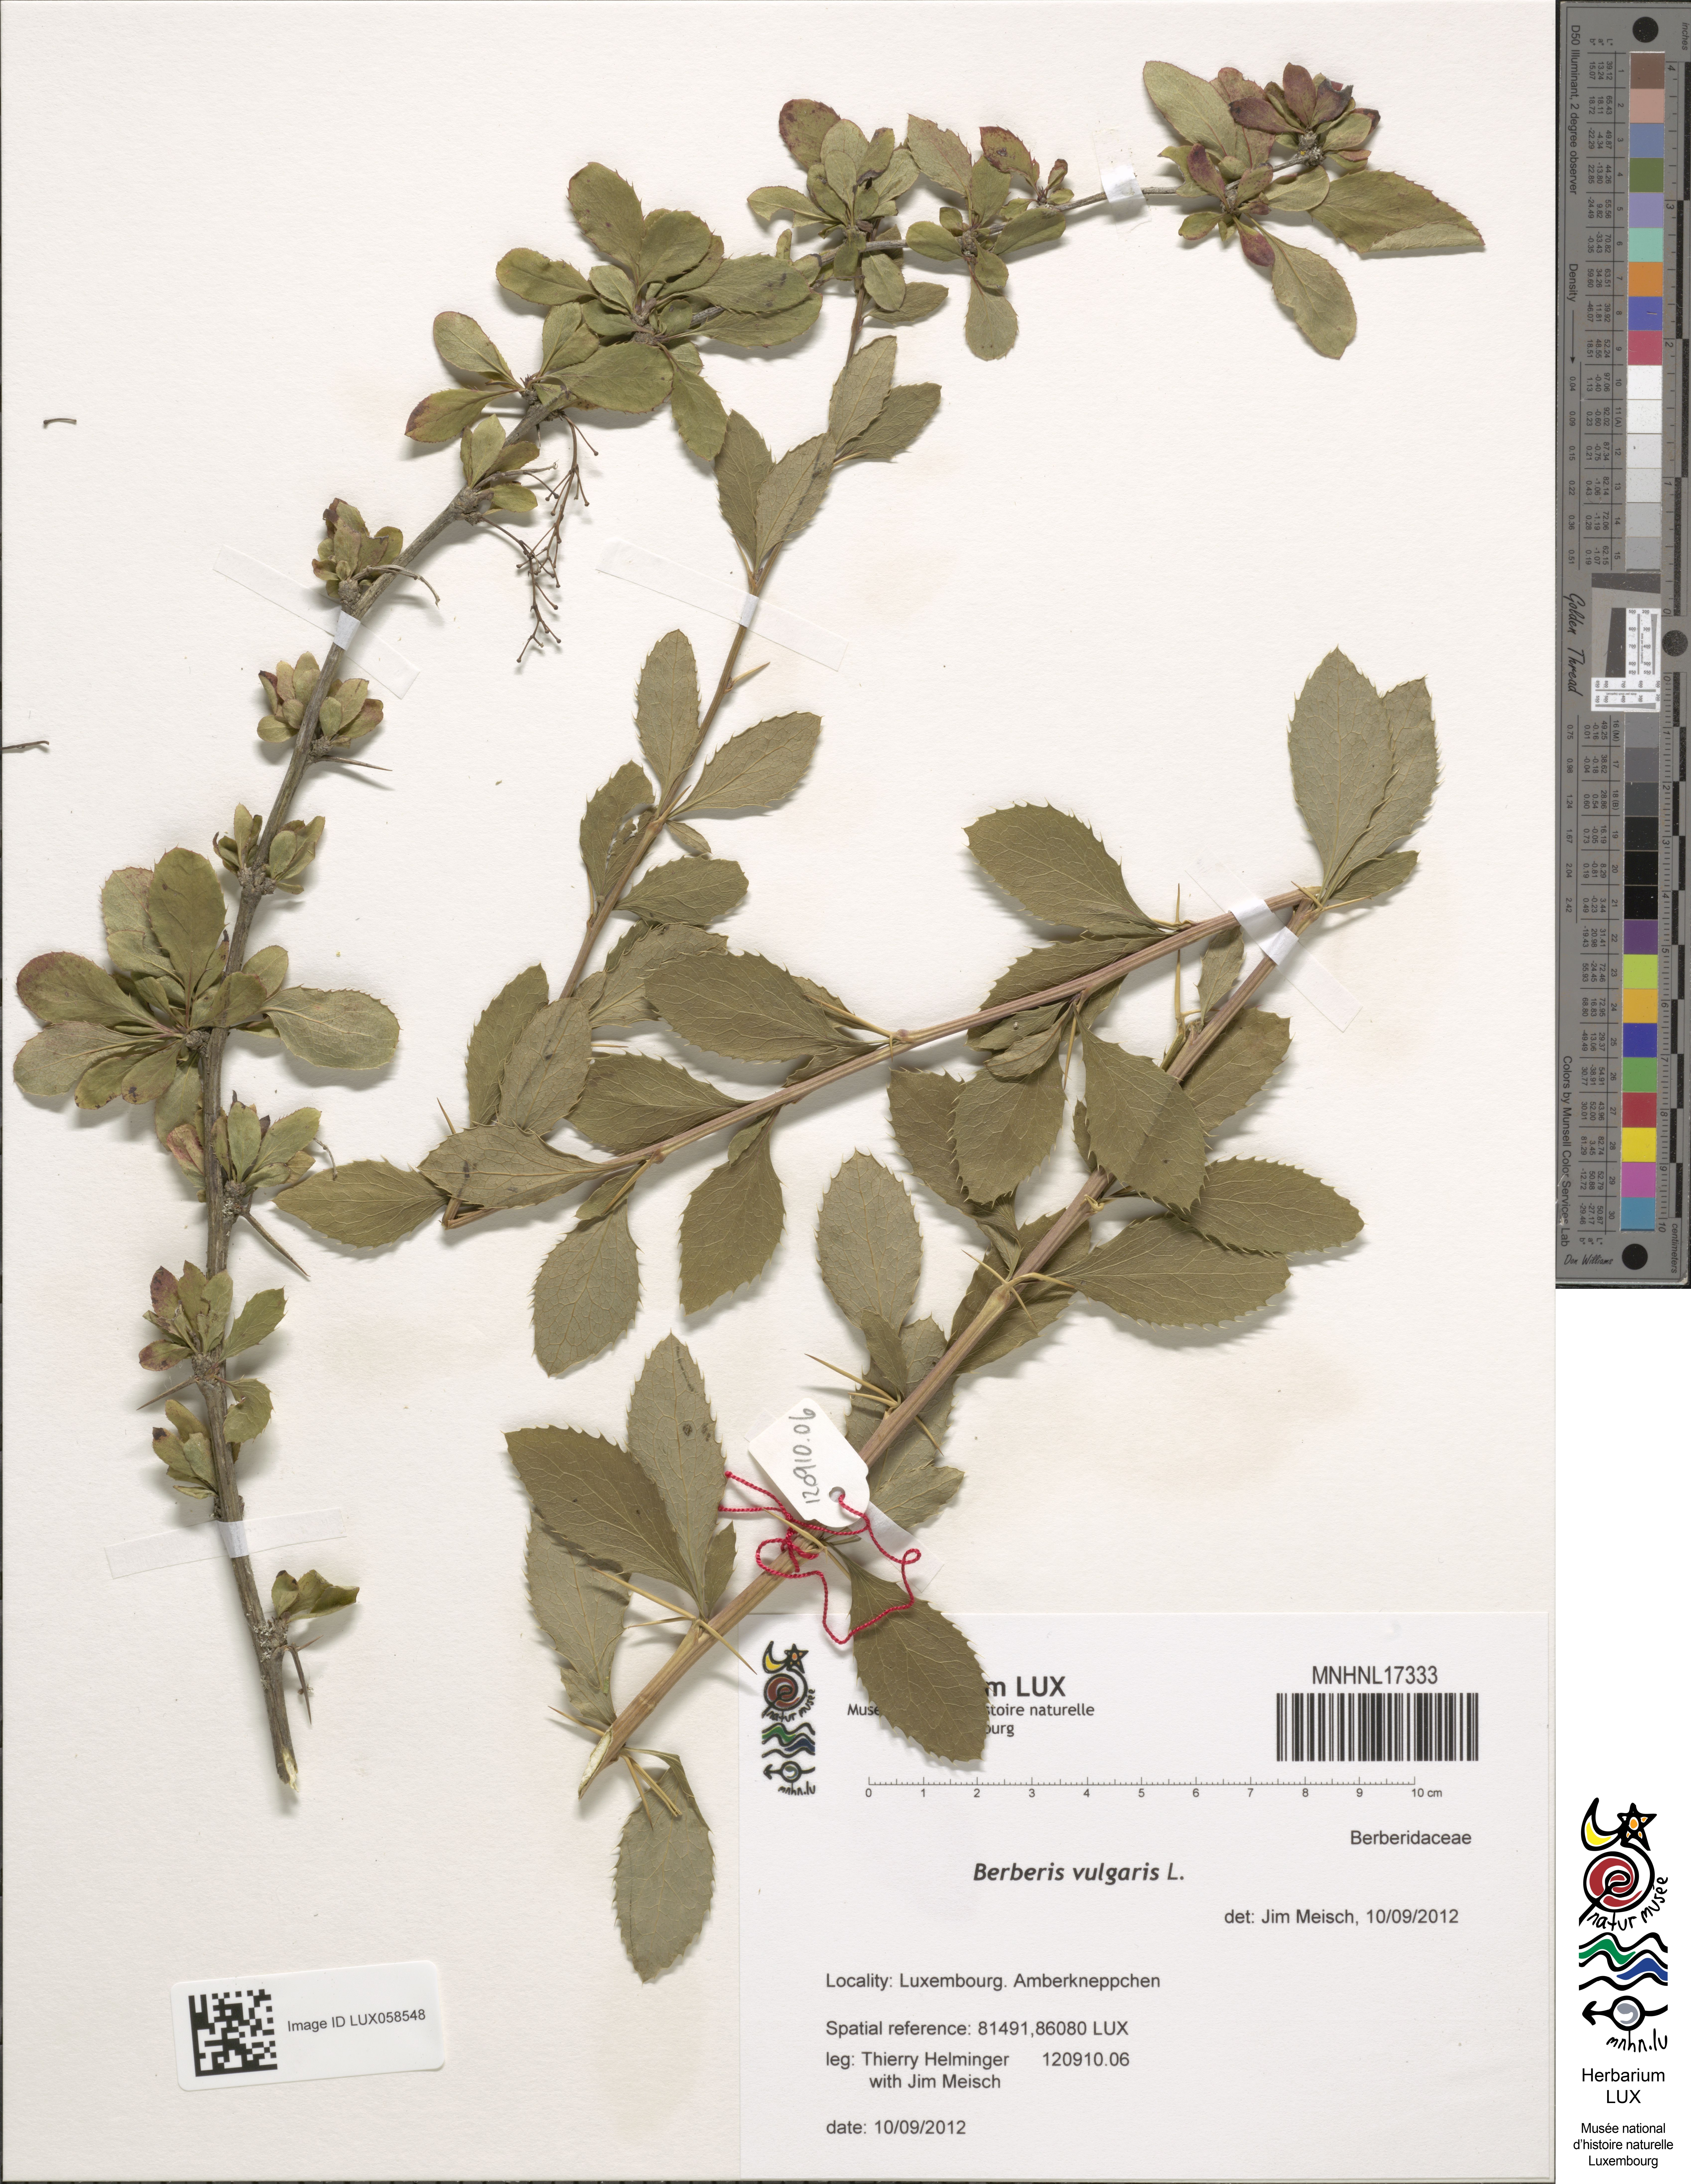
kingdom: Plantae
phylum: Tracheophyta
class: Magnoliopsida
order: Ranunculales
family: Berberidaceae
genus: Berberis
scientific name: Berberis vulgaris
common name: Barberry
